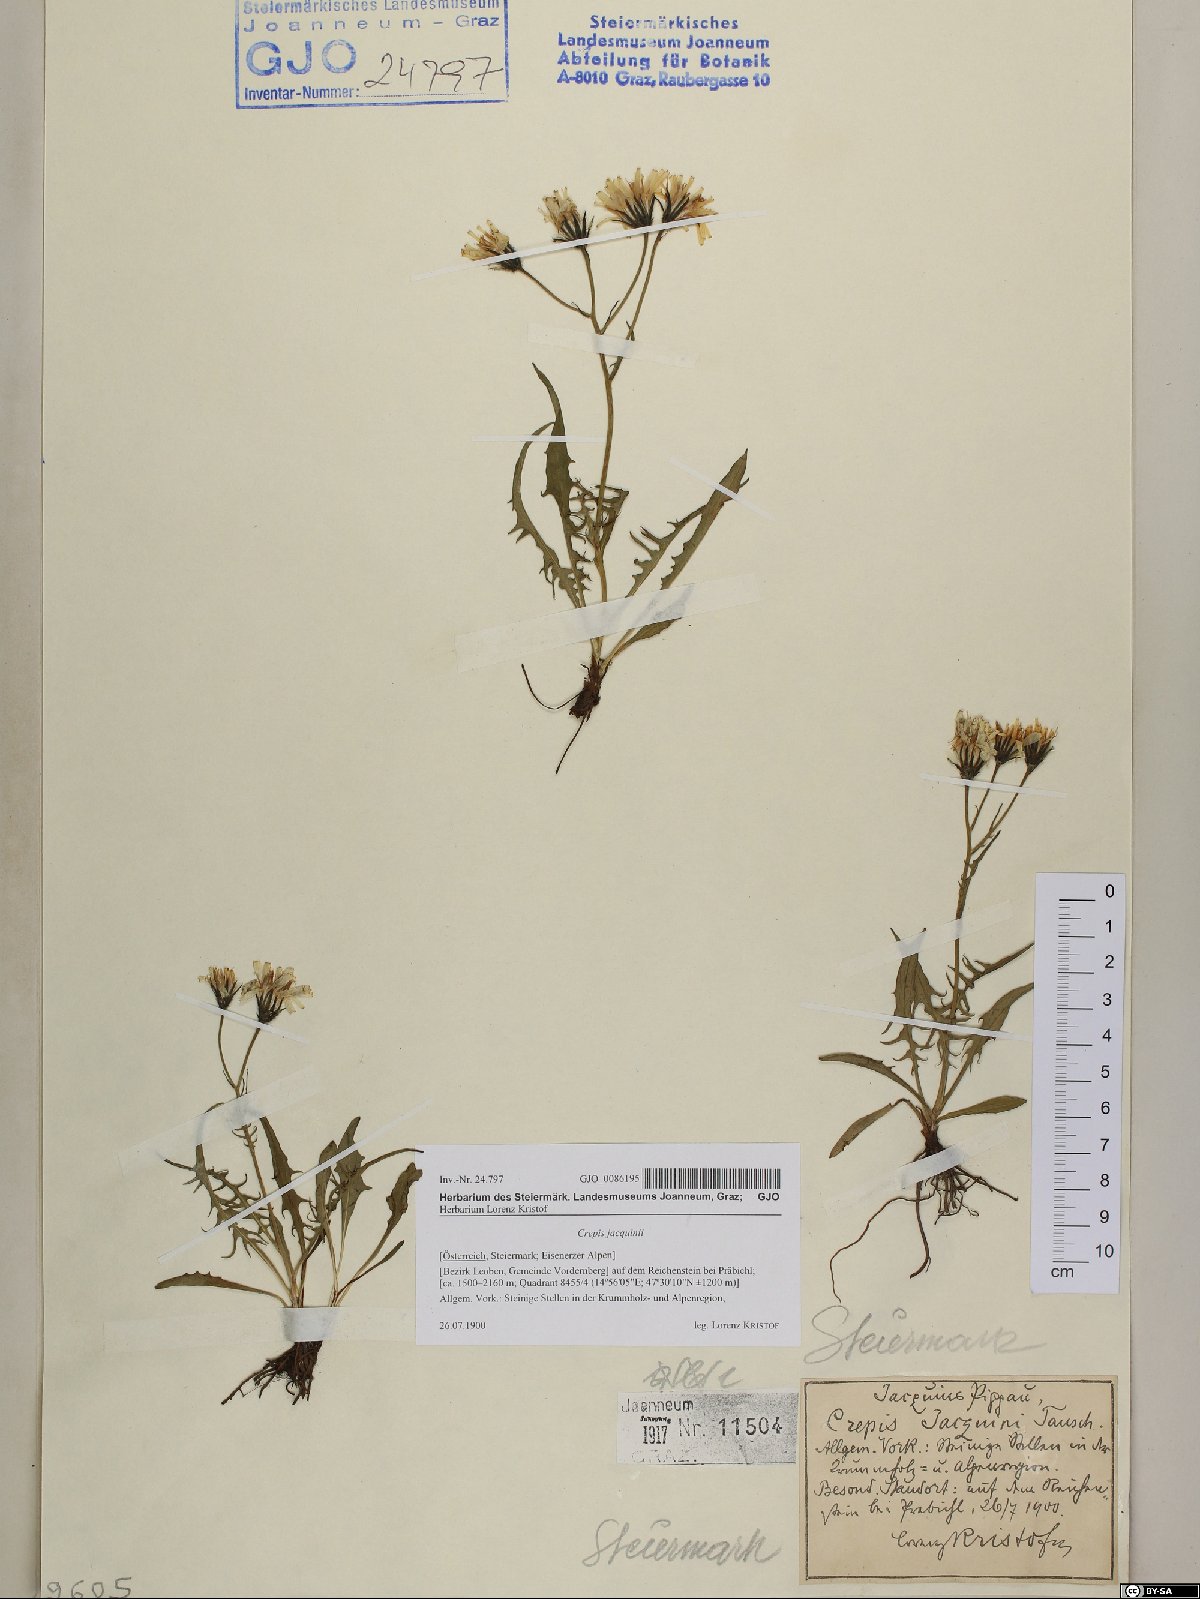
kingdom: Plantae
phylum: Tracheophyta
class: Magnoliopsida
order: Asterales
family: Asteraceae
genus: Crepis
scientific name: Crepis jacquinii
